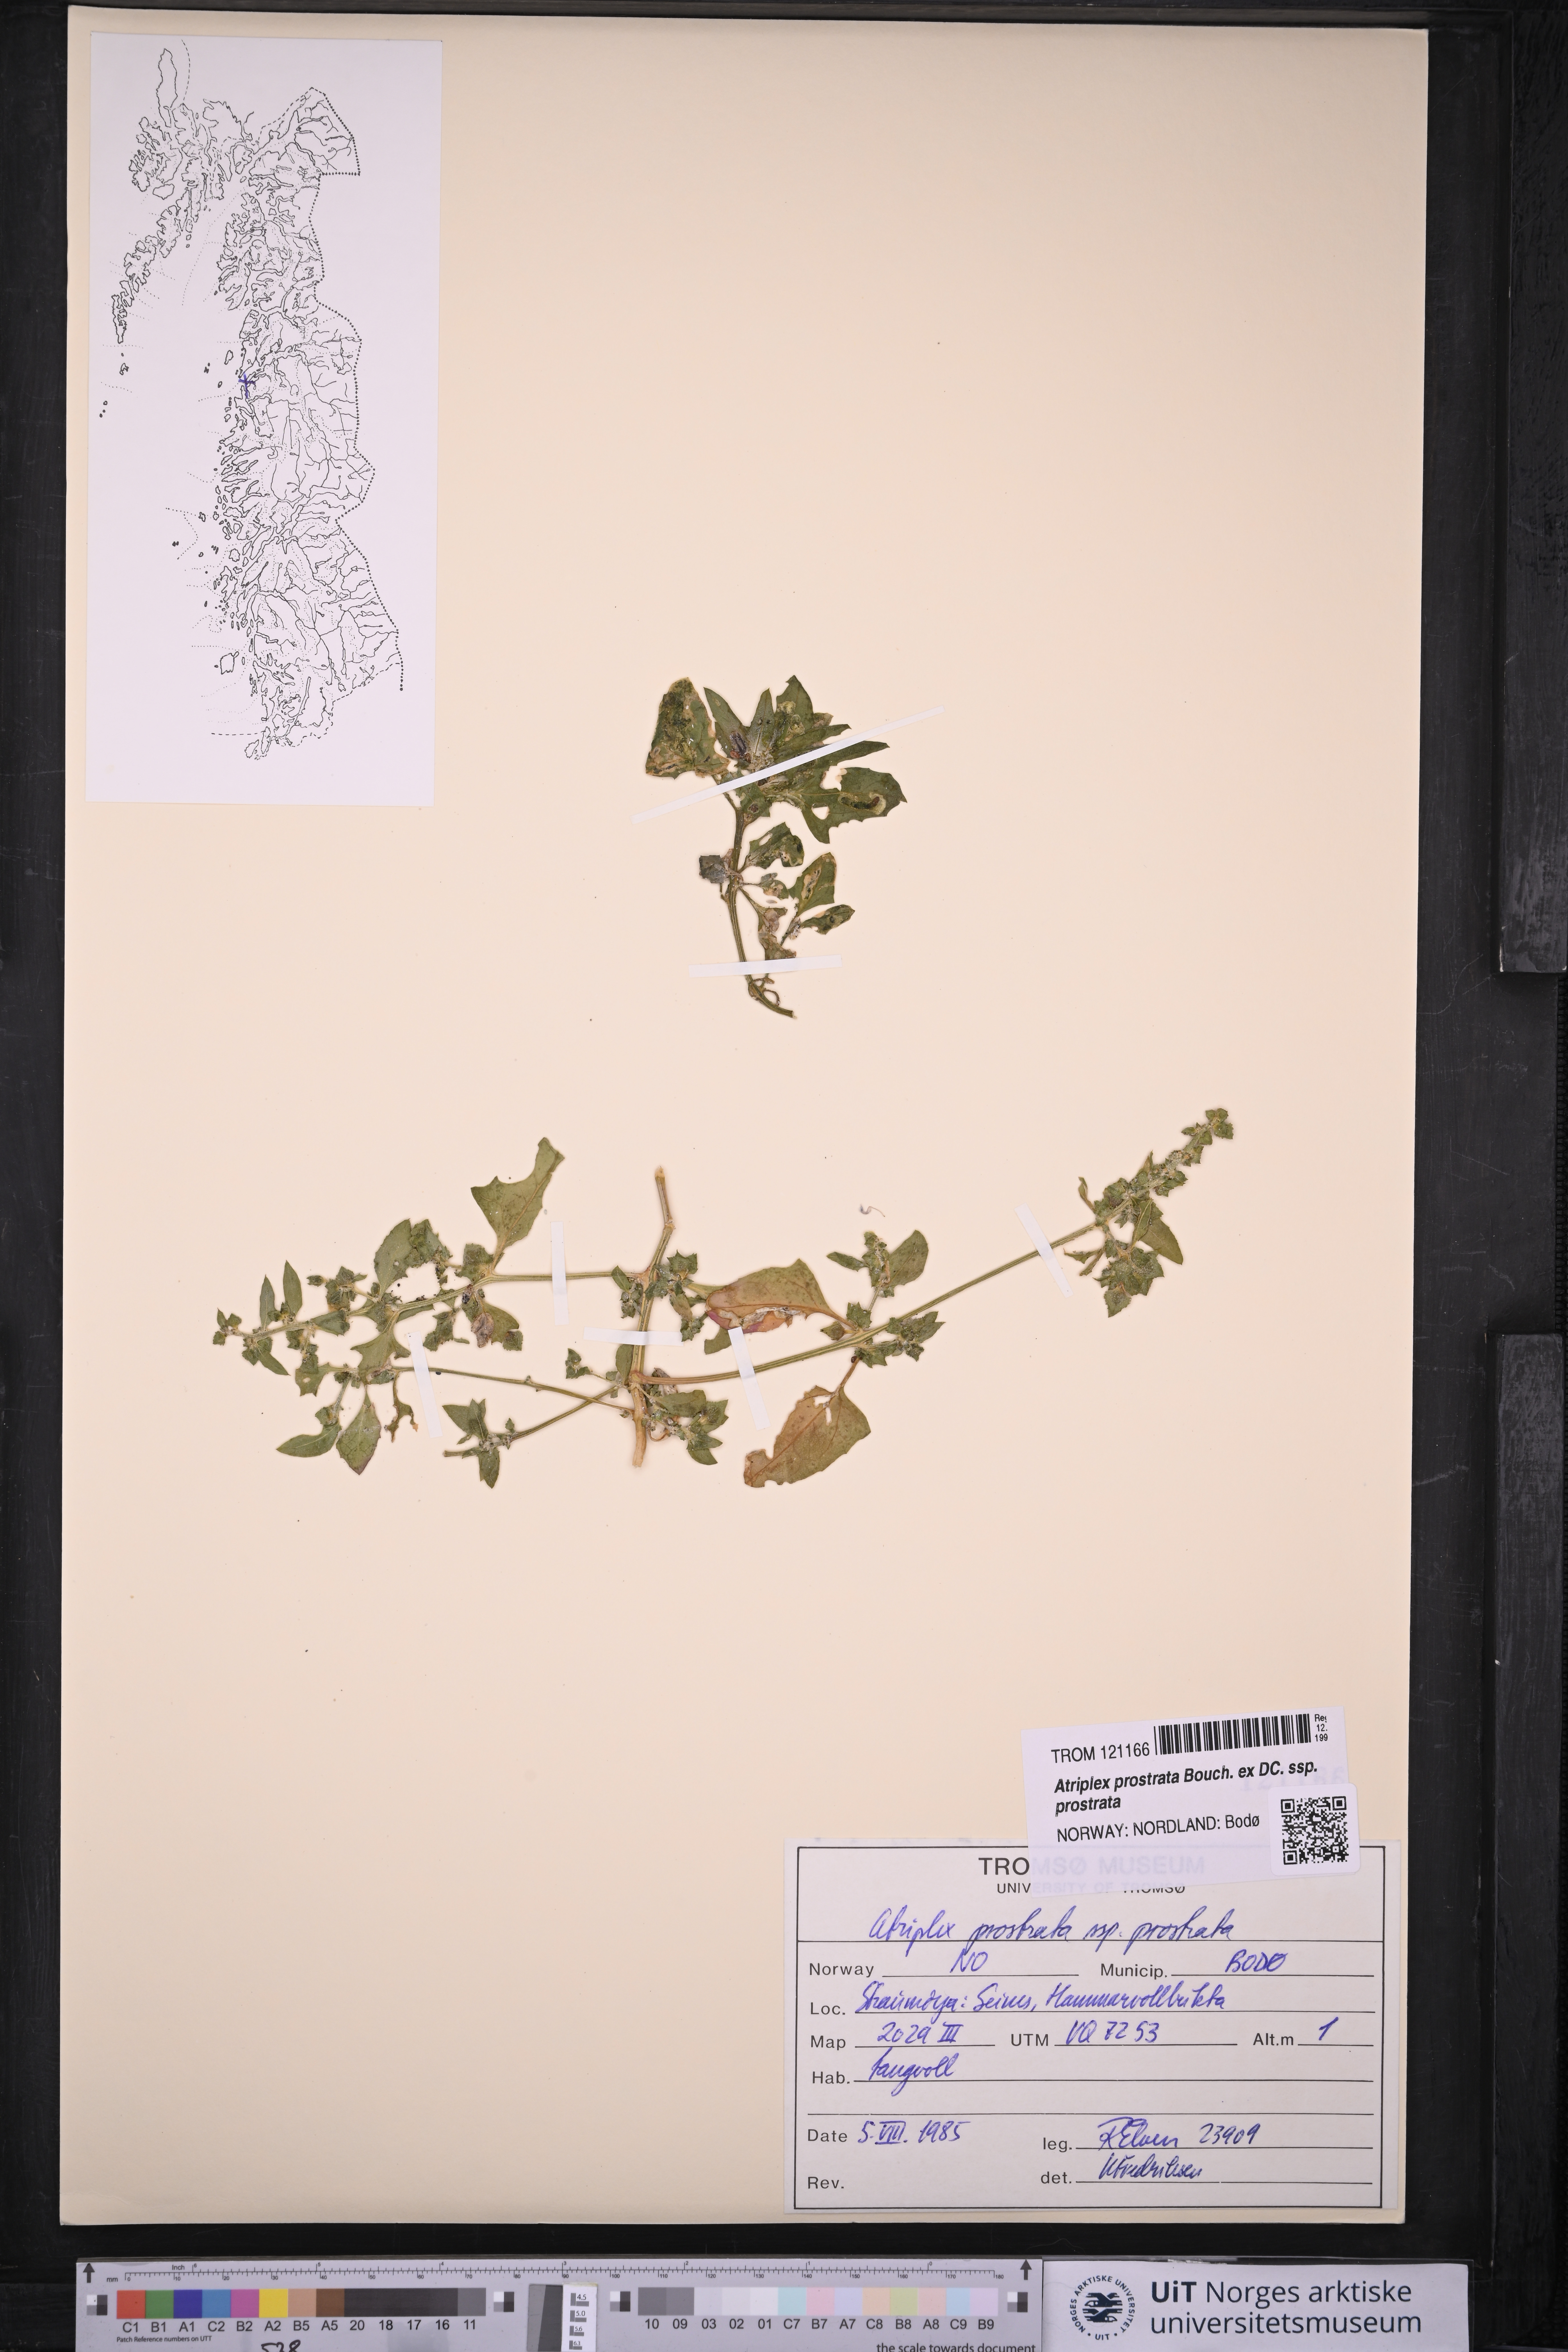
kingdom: Plantae
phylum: Tracheophyta
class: Magnoliopsida
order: Caryophyllales
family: Amaranthaceae
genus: Atriplex
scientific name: Atriplex prostrata
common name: Spear-leaved orache
